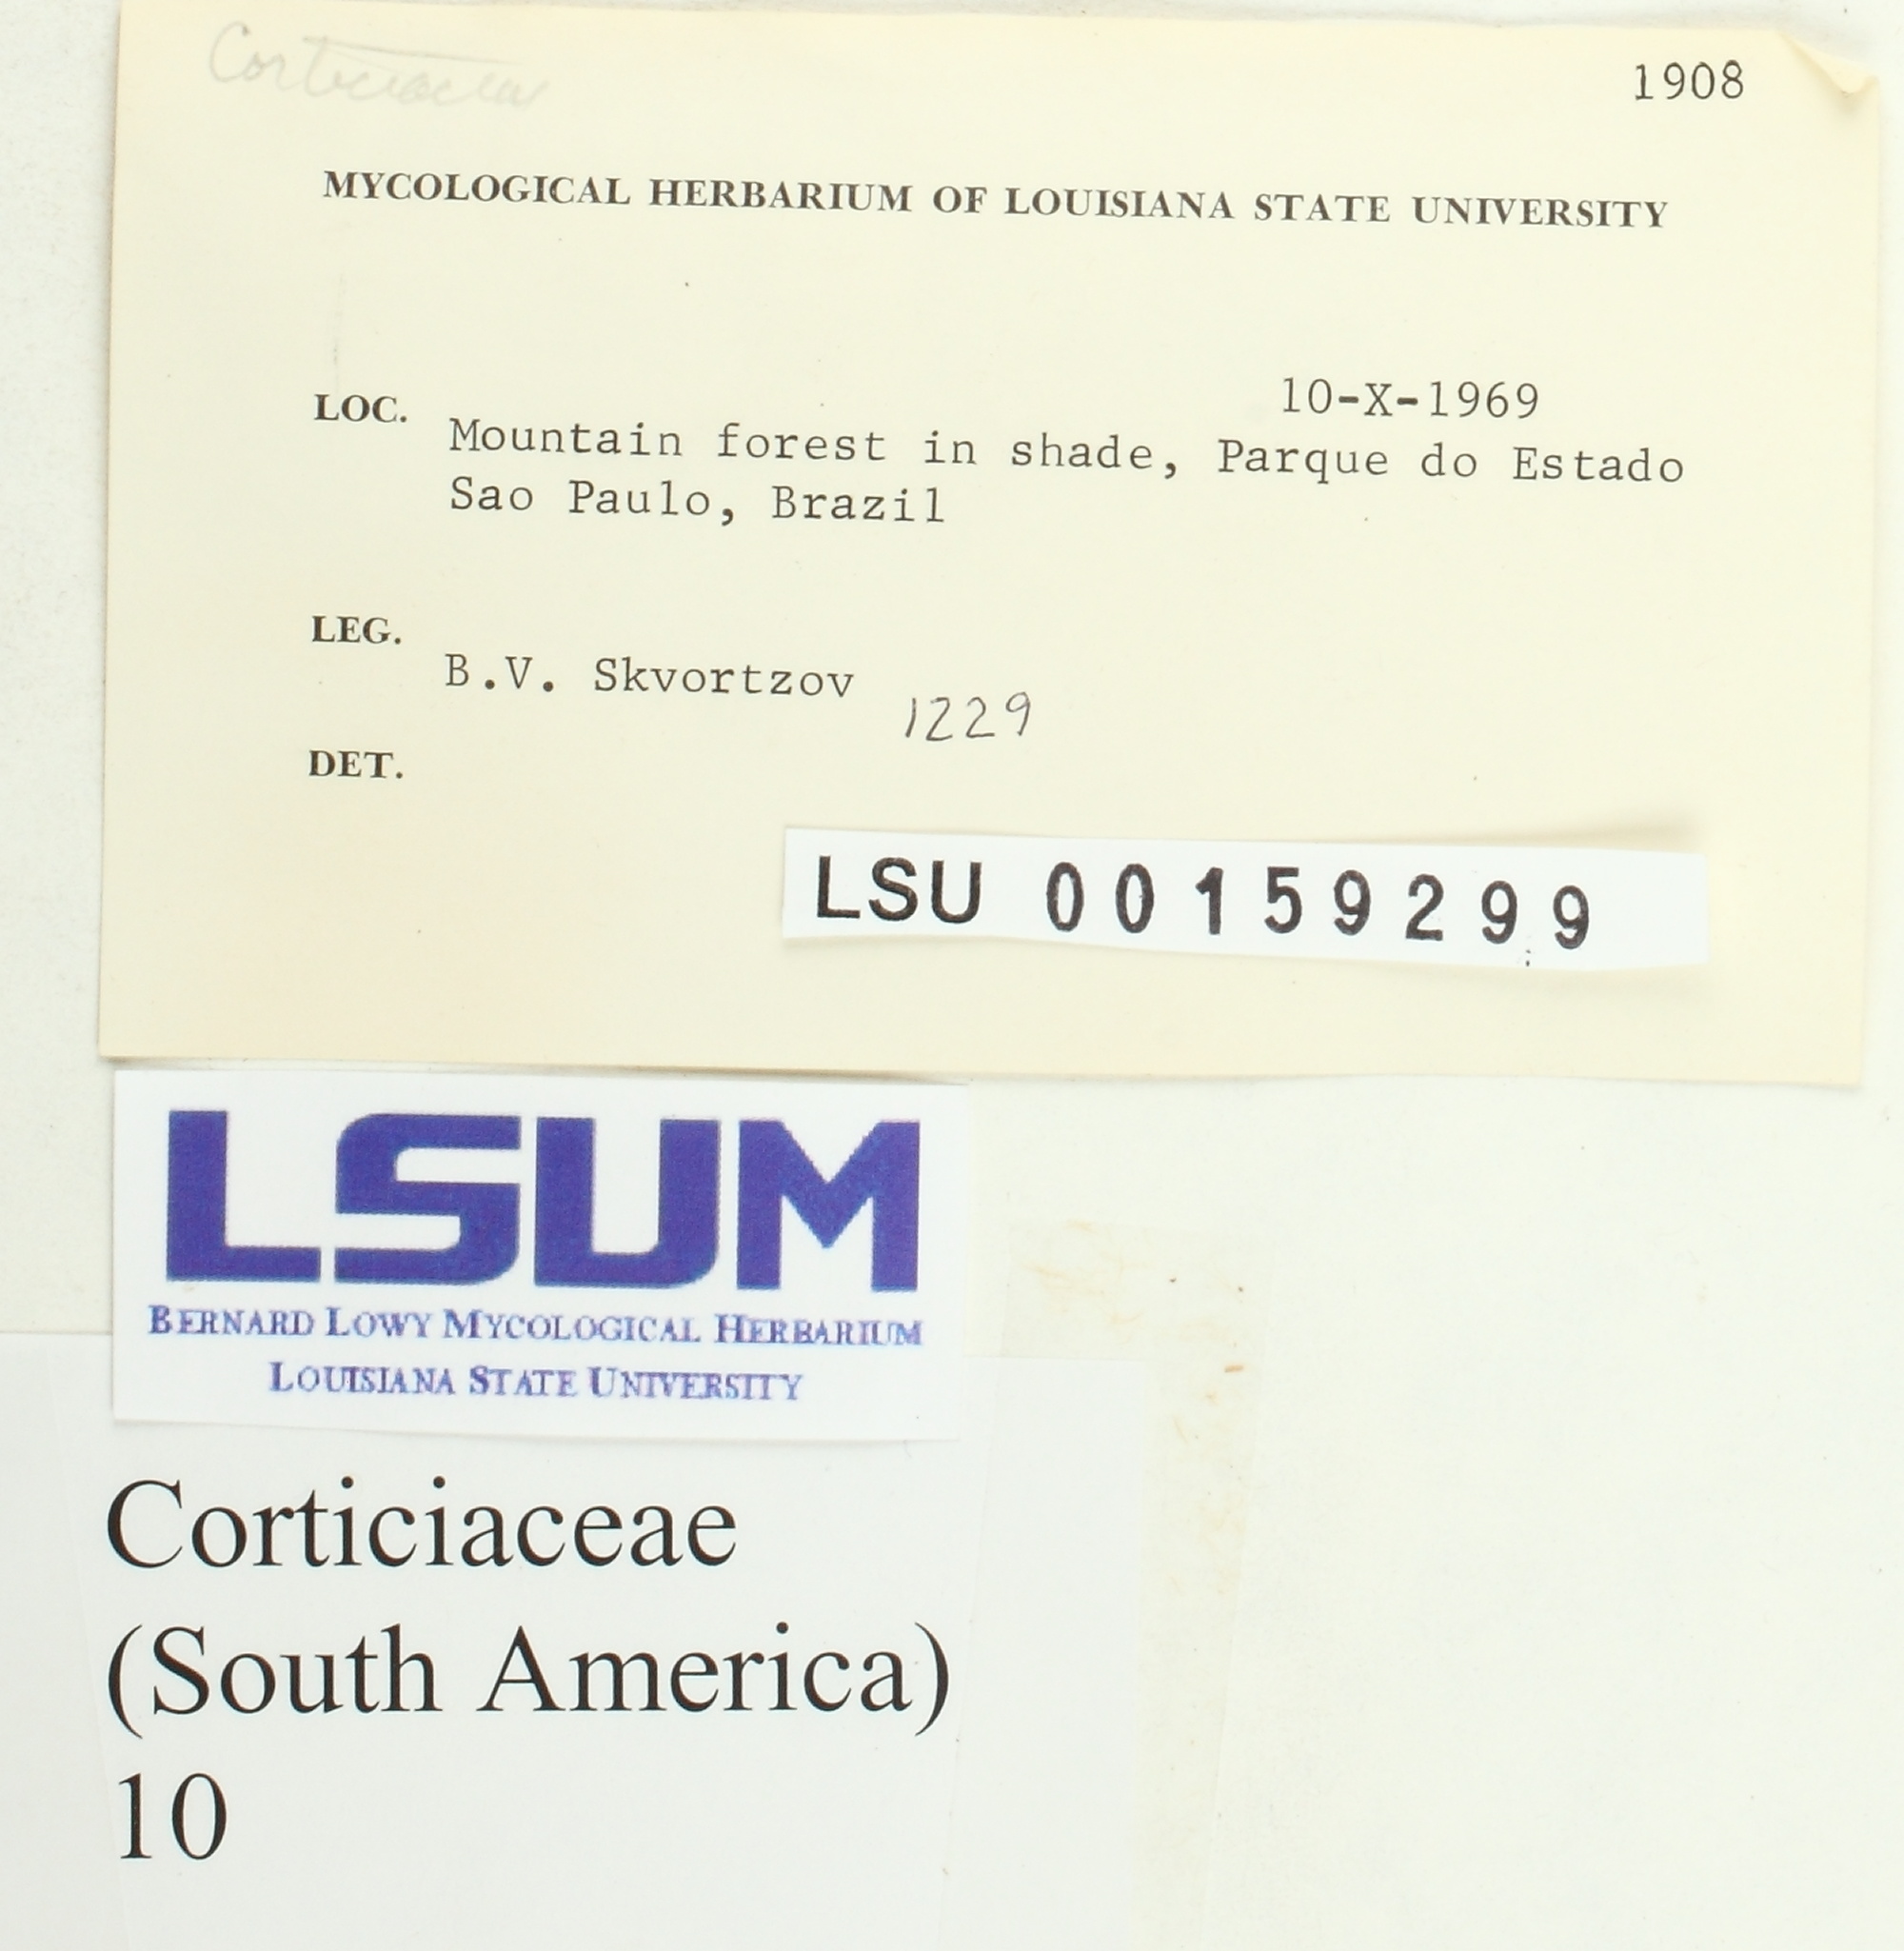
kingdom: Fungi
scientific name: Fungi
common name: Fungi
